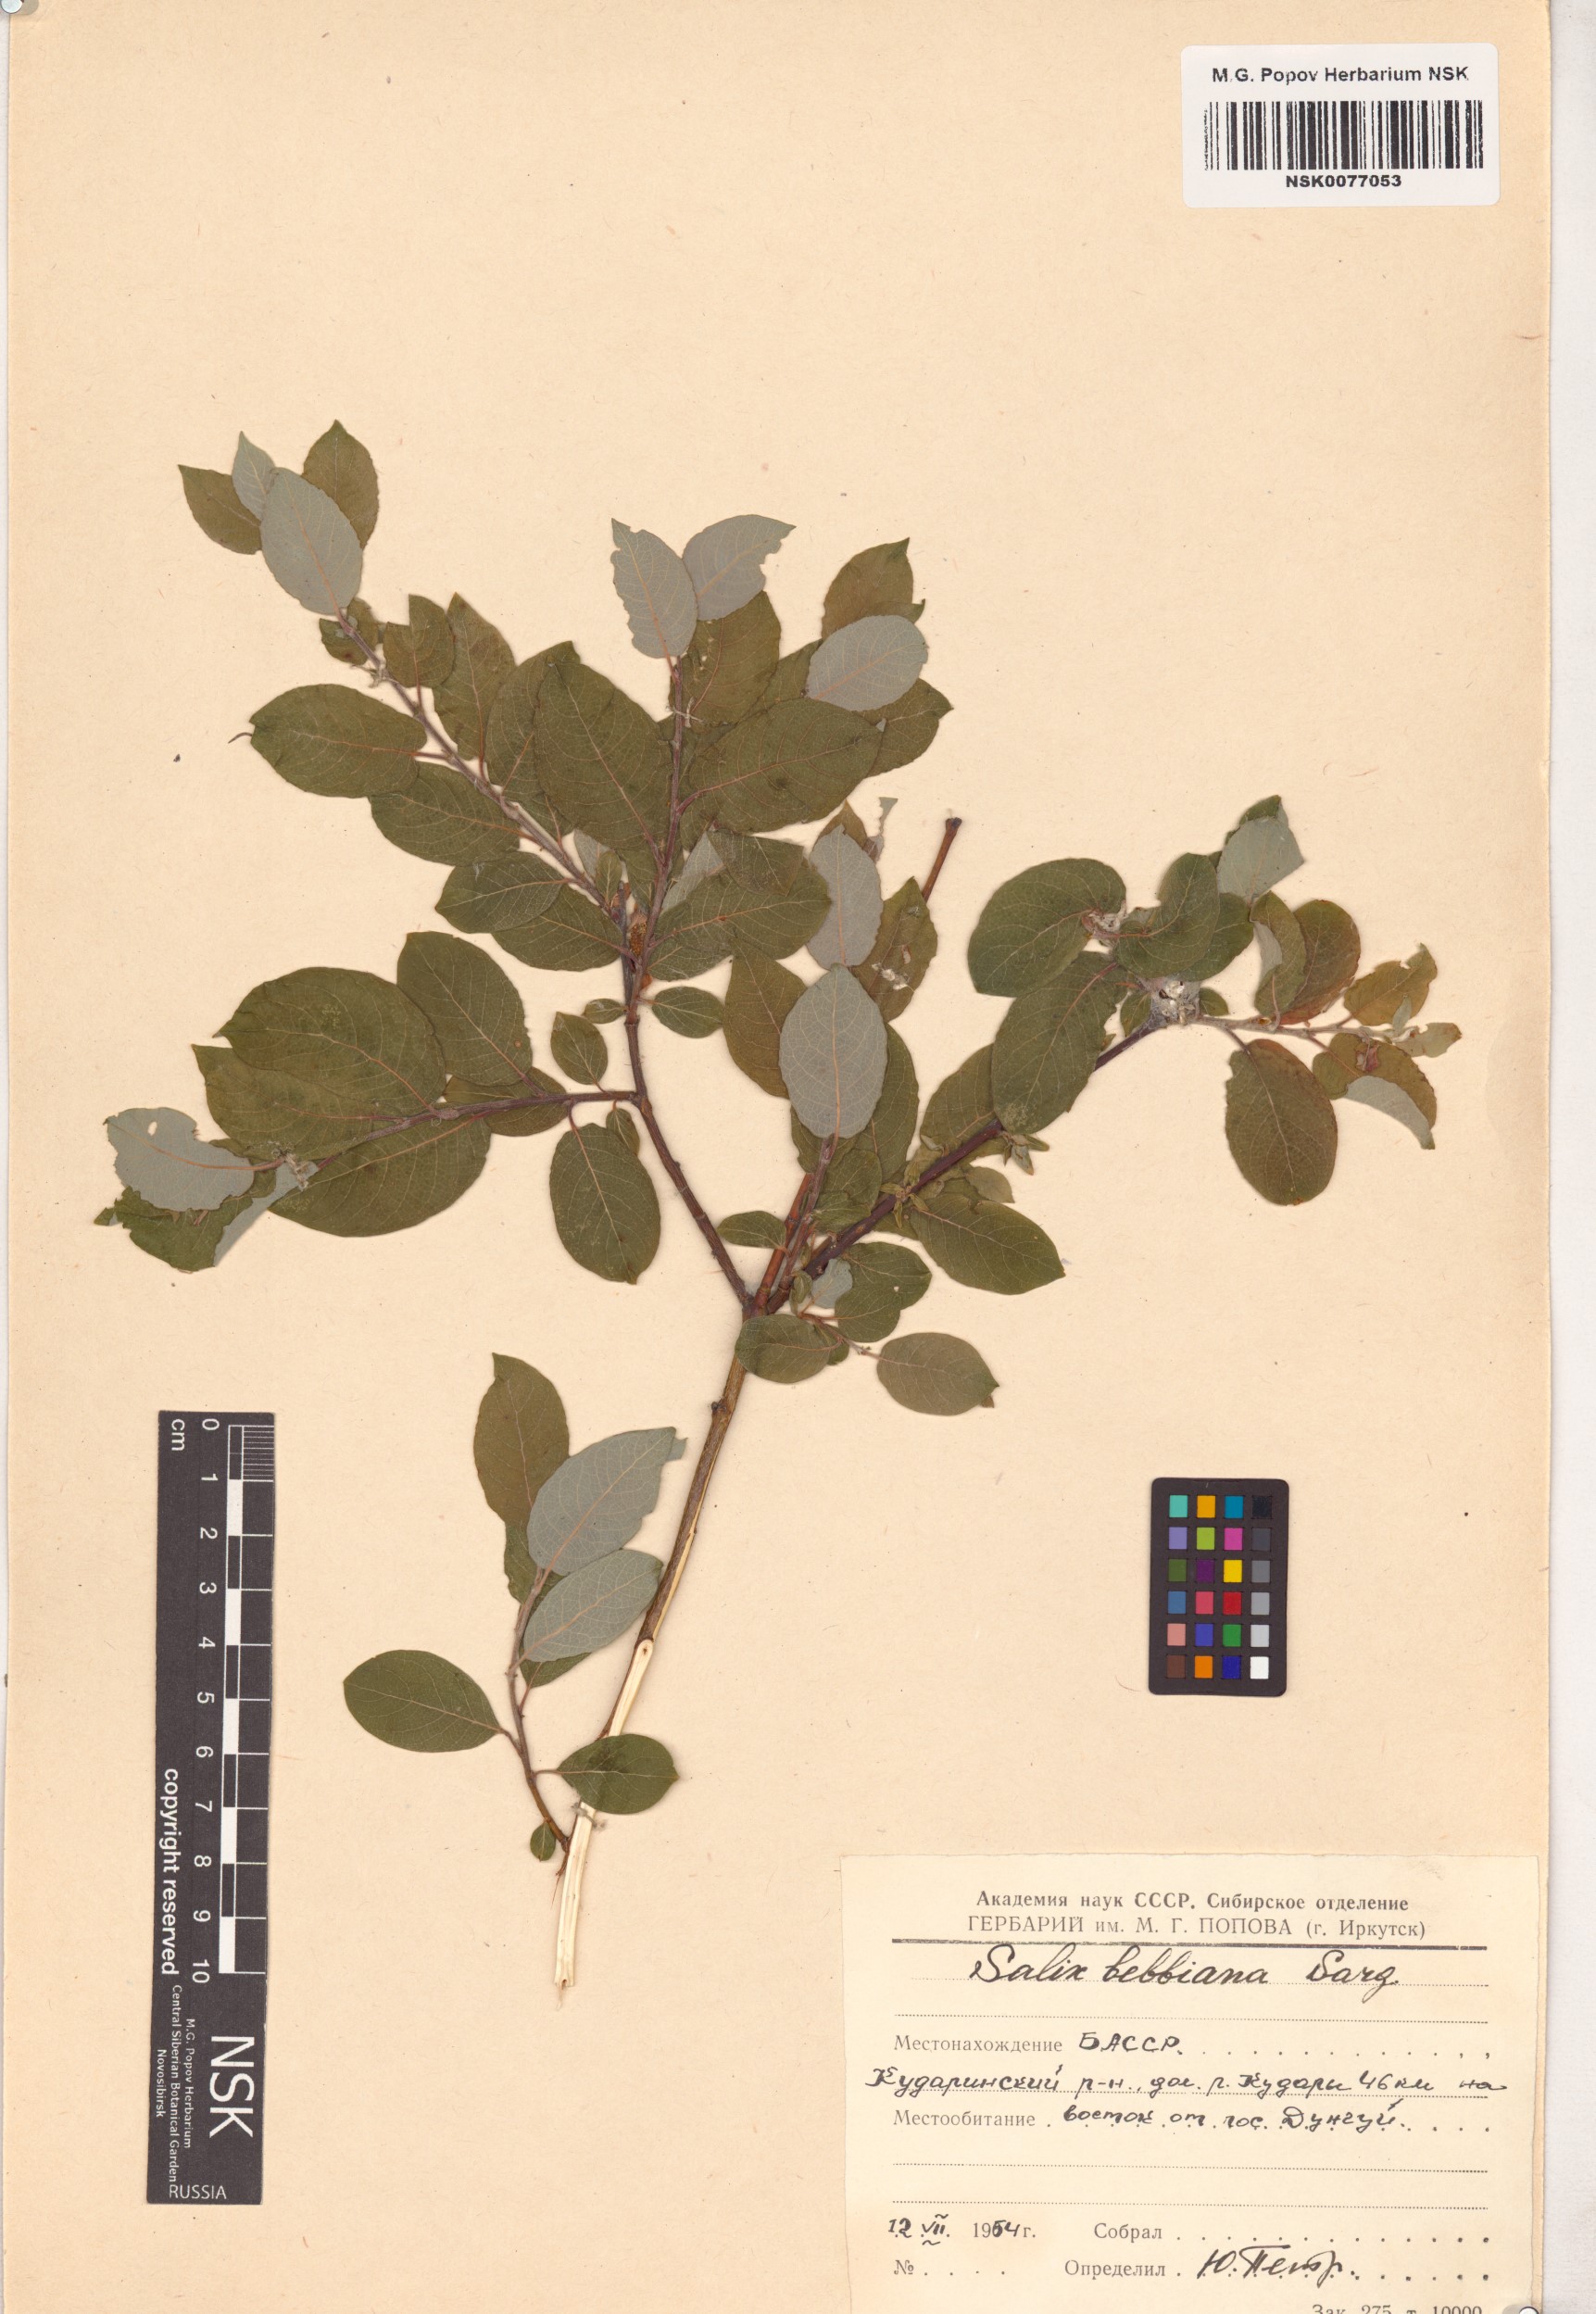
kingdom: Plantae
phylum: Tracheophyta
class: Magnoliopsida
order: Malpighiales
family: Salicaceae
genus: Salix
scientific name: Salix bebbiana
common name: Bebb's willow
